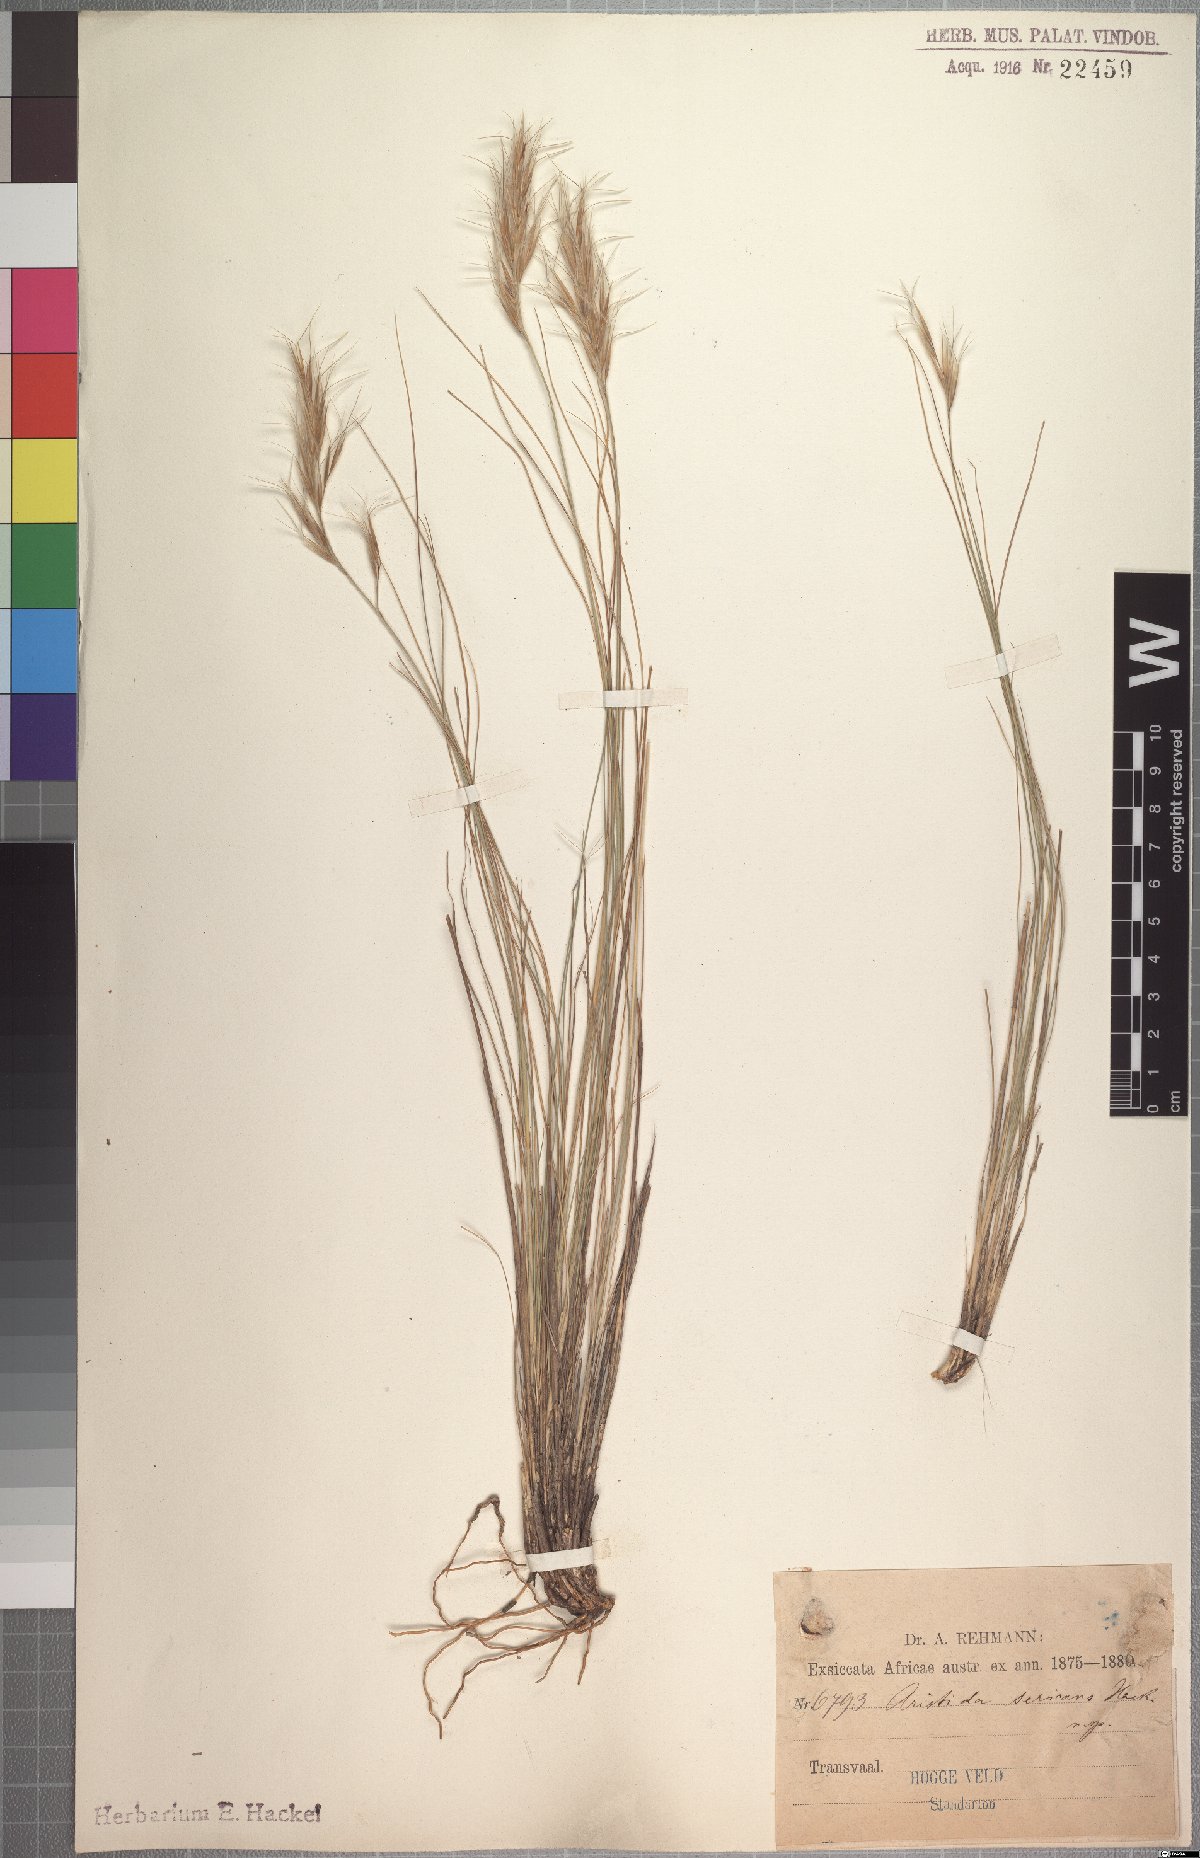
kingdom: Plantae
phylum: Tracheophyta
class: Liliopsida
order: Poales
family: Poaceae
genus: Stipagrostis
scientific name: Stipagrostis zeyheri
